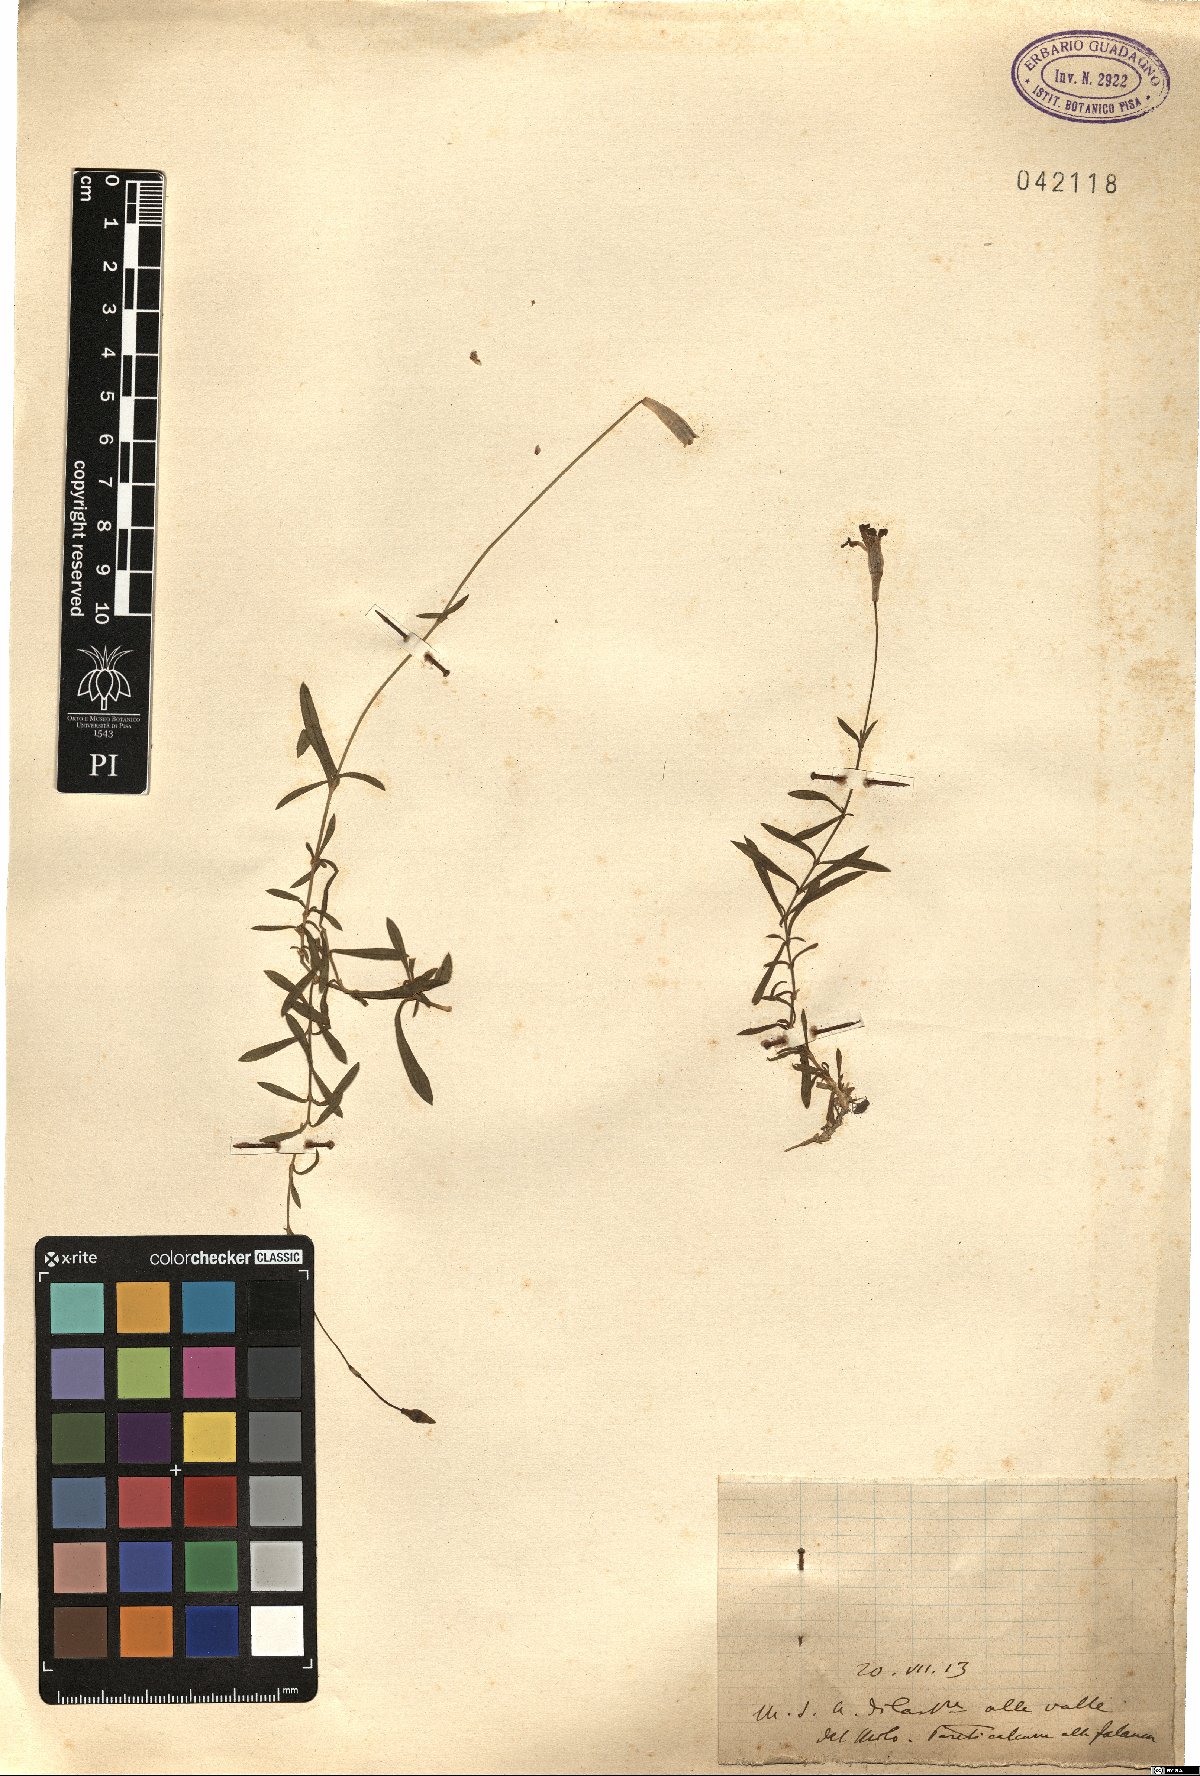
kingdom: Plantae
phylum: Tracheophyta
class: Magnoliopsida
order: Caryophyllales
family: Caryophyllaceae
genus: Silene
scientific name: Silene
